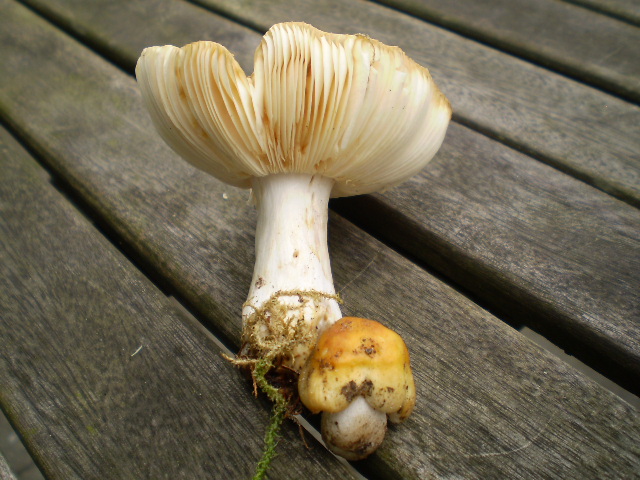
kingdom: Fungi
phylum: Basidiomycota
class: Agaricomycetes
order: Russulales
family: Russulaceae
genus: Russula
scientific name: Russula foetens
